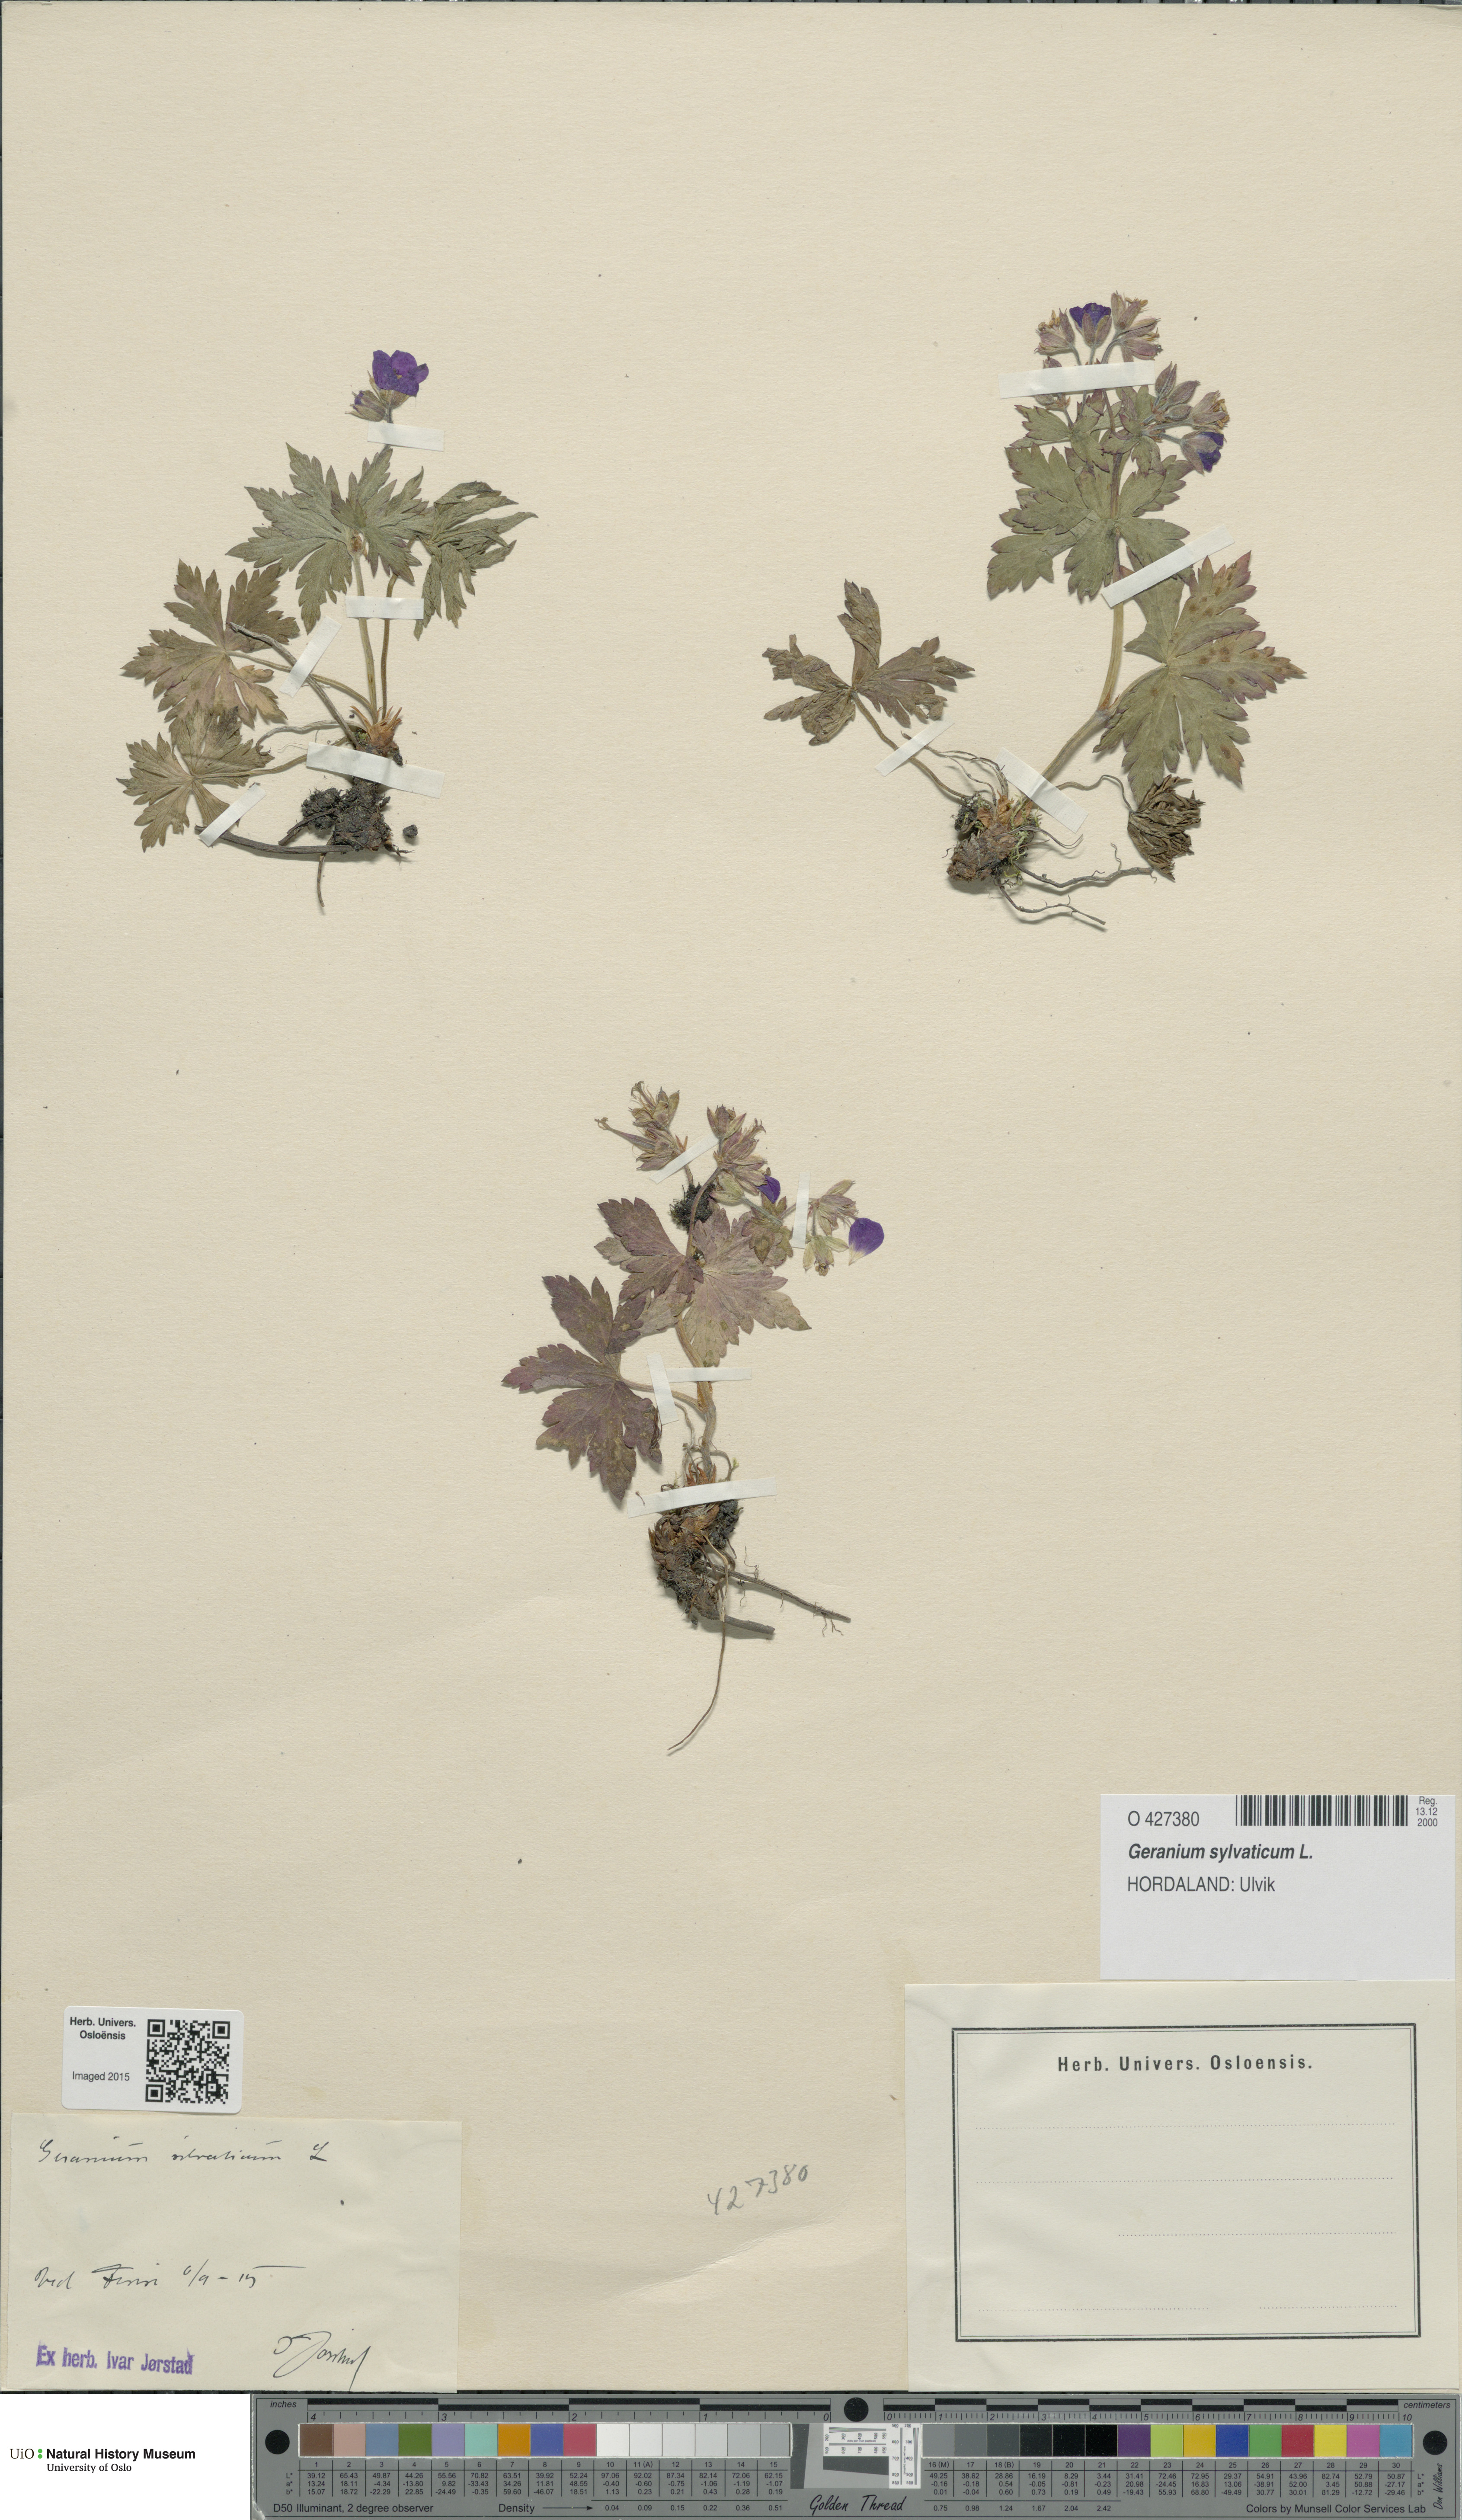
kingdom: Plantae
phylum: Tracheophyta
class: Magnoliopsida
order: Geraniales
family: Geraniaceae
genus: Geranium
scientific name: Geranium sylvaticum
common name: Wood crane's-bill
